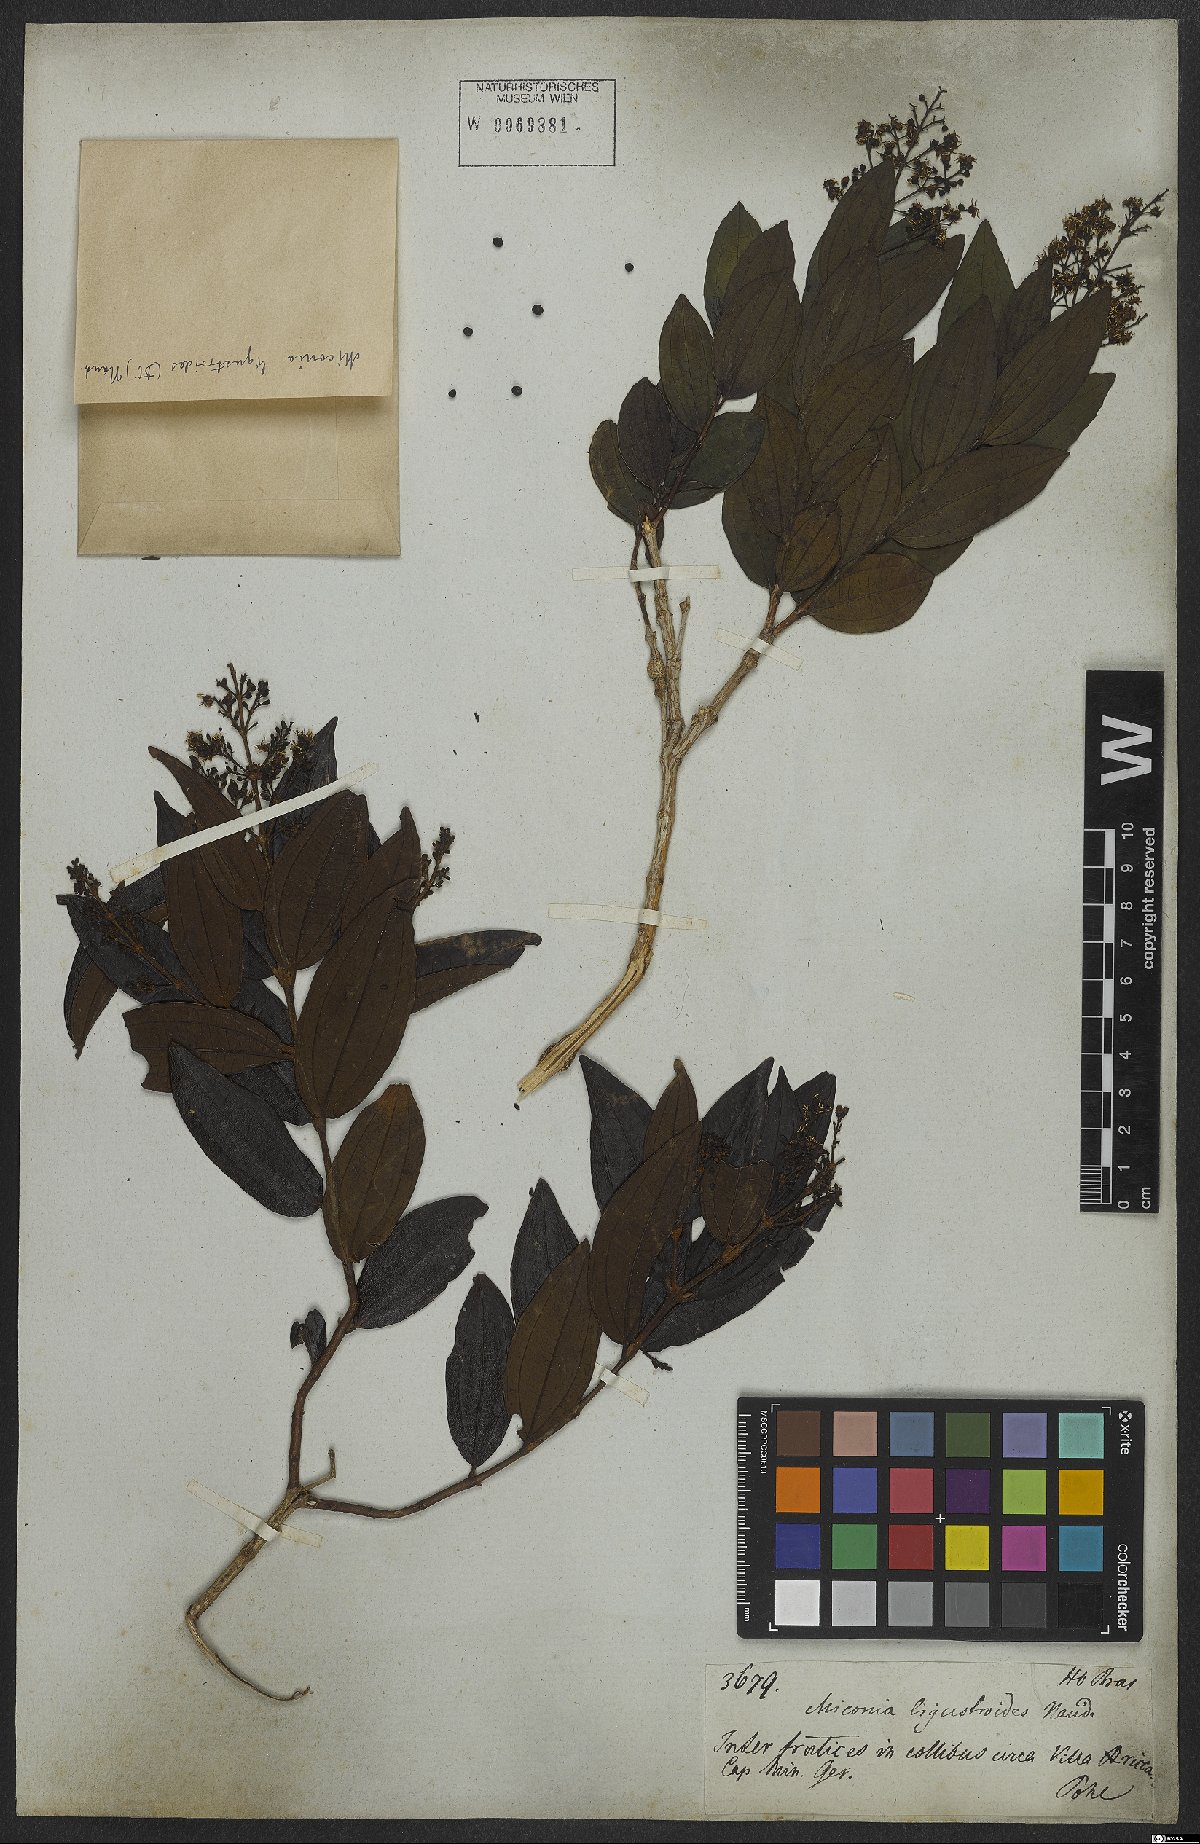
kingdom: Plantae
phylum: Tracheophyta
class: Magnoliopsida
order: Myrtales
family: Melastomataceae
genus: Miconia
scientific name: Miconia ligustroides
